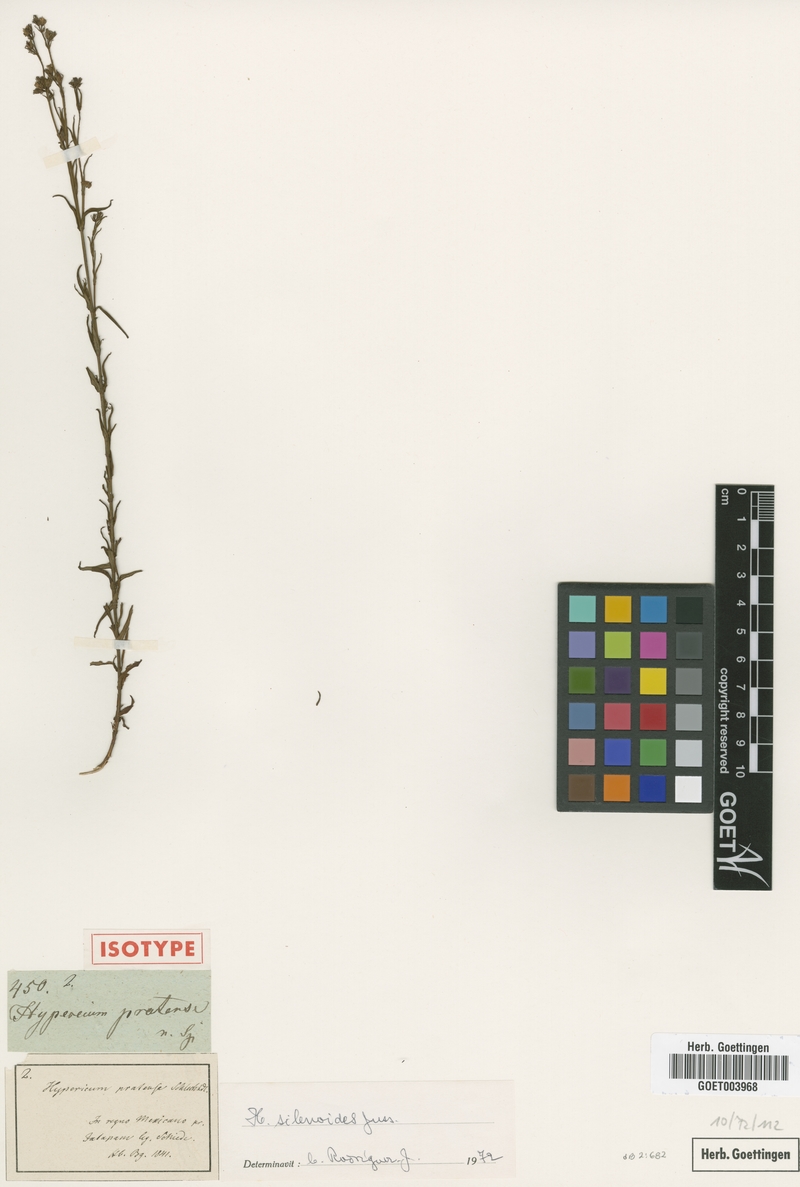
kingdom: Plantae
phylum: Tracheophyta
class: Magnoliopsida
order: Malpighiales
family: Hypericaceae
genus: Hypericum
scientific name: Hypericum silenoides
